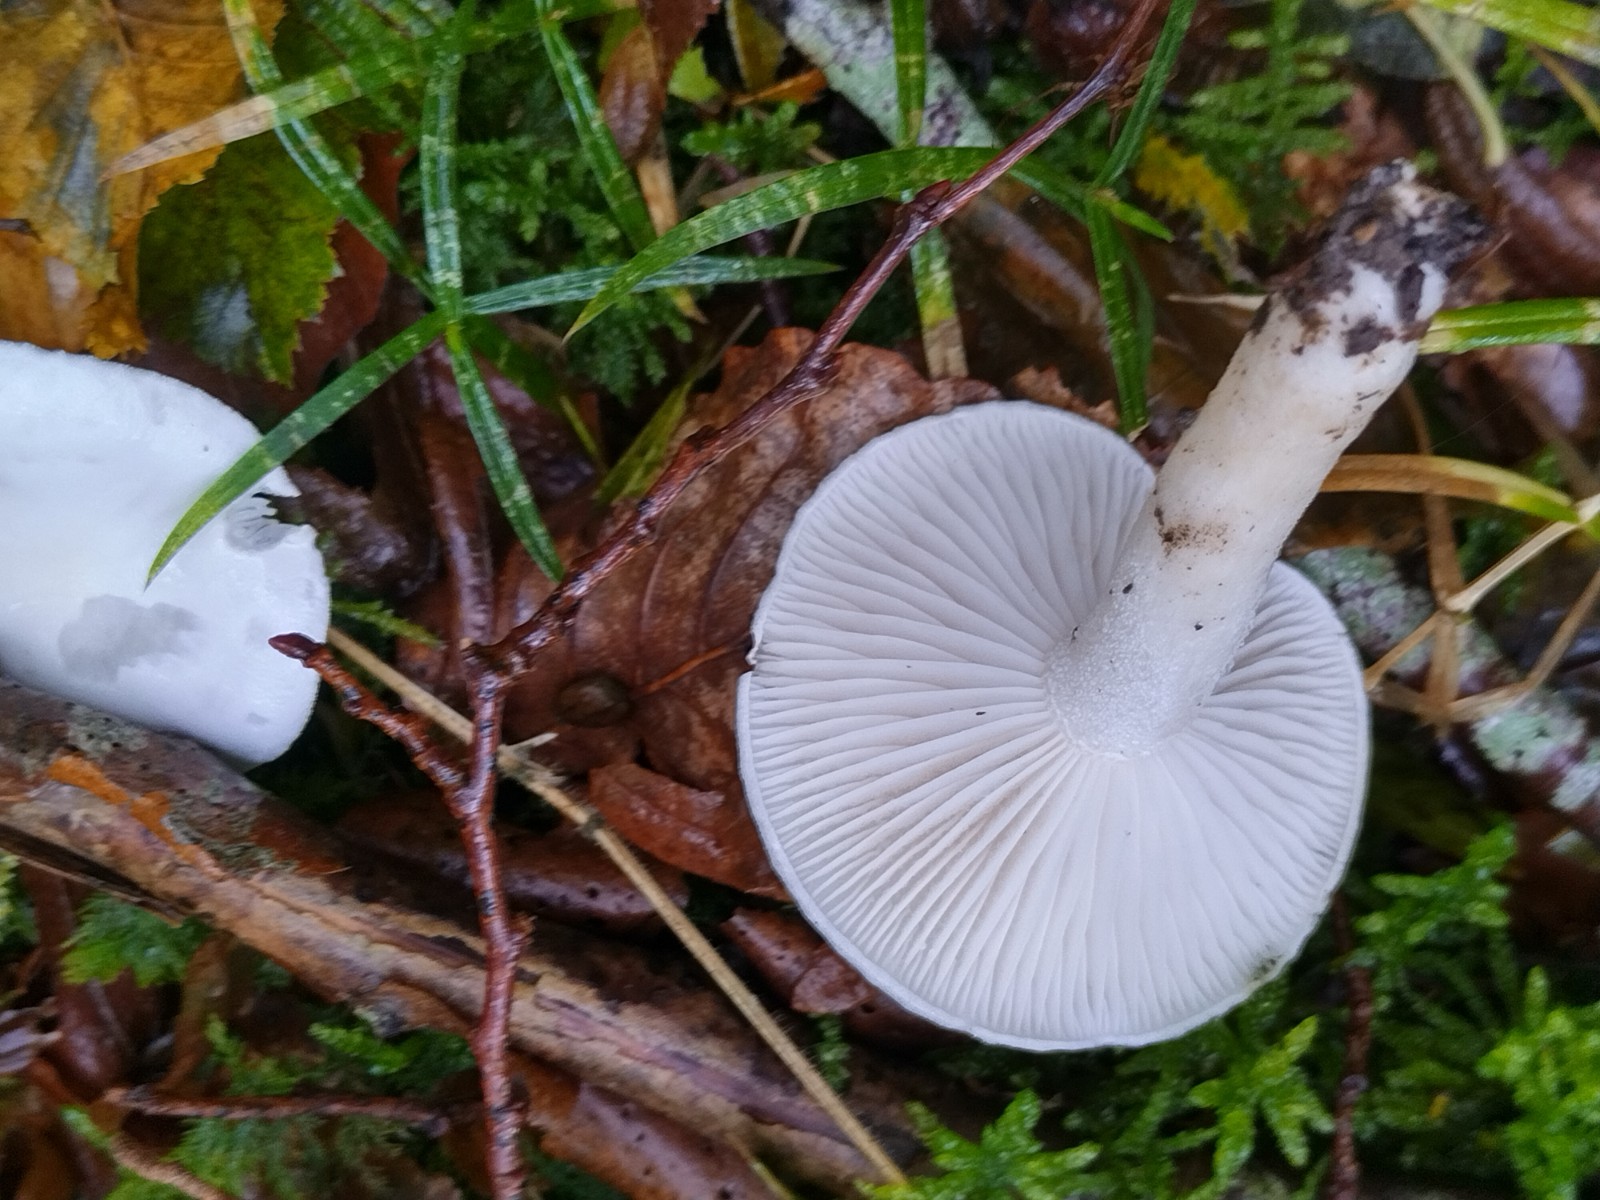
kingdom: Fungi
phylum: Basidiomycota
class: Agaricomycetes
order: Agaricales
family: Hygrophoraceae
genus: Hygrophorus
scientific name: Hygrophorus eburneus
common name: elfenbens-sneglehat
